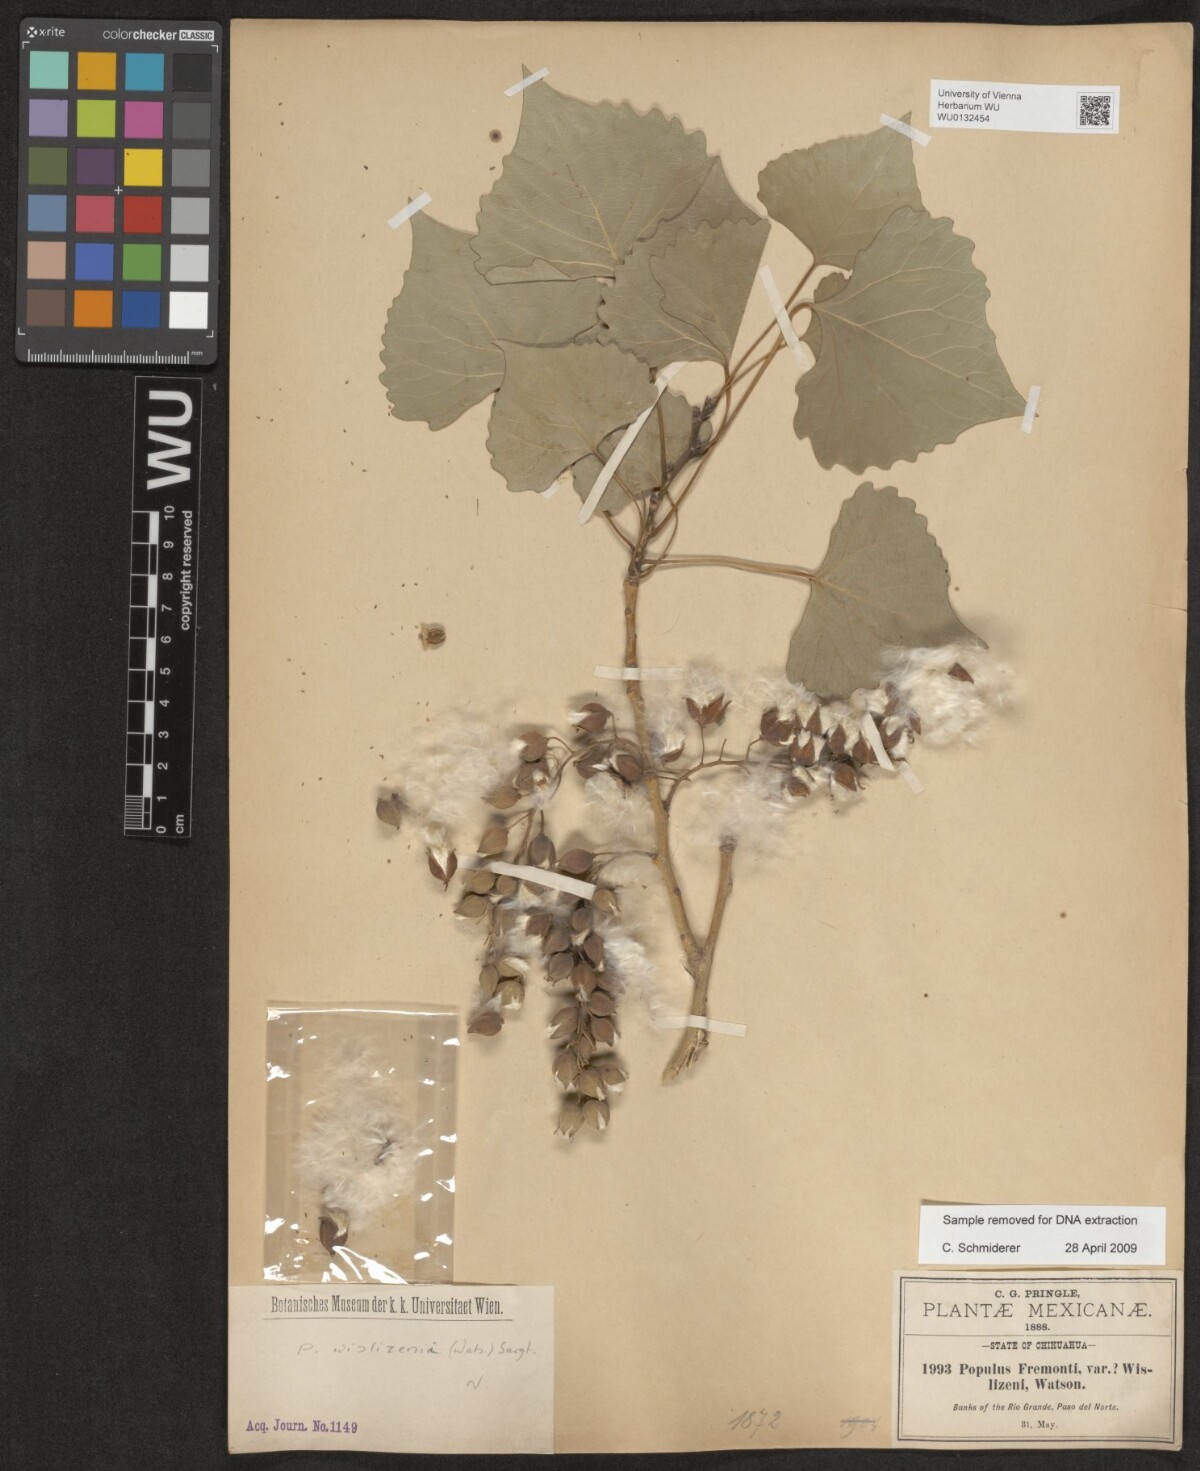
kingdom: Plantae
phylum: Tracheophyta
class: Magnoliopsida
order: Malpighiales
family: Salicaceae
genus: Populus
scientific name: Populus deltoides
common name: Eastern cottonwood
